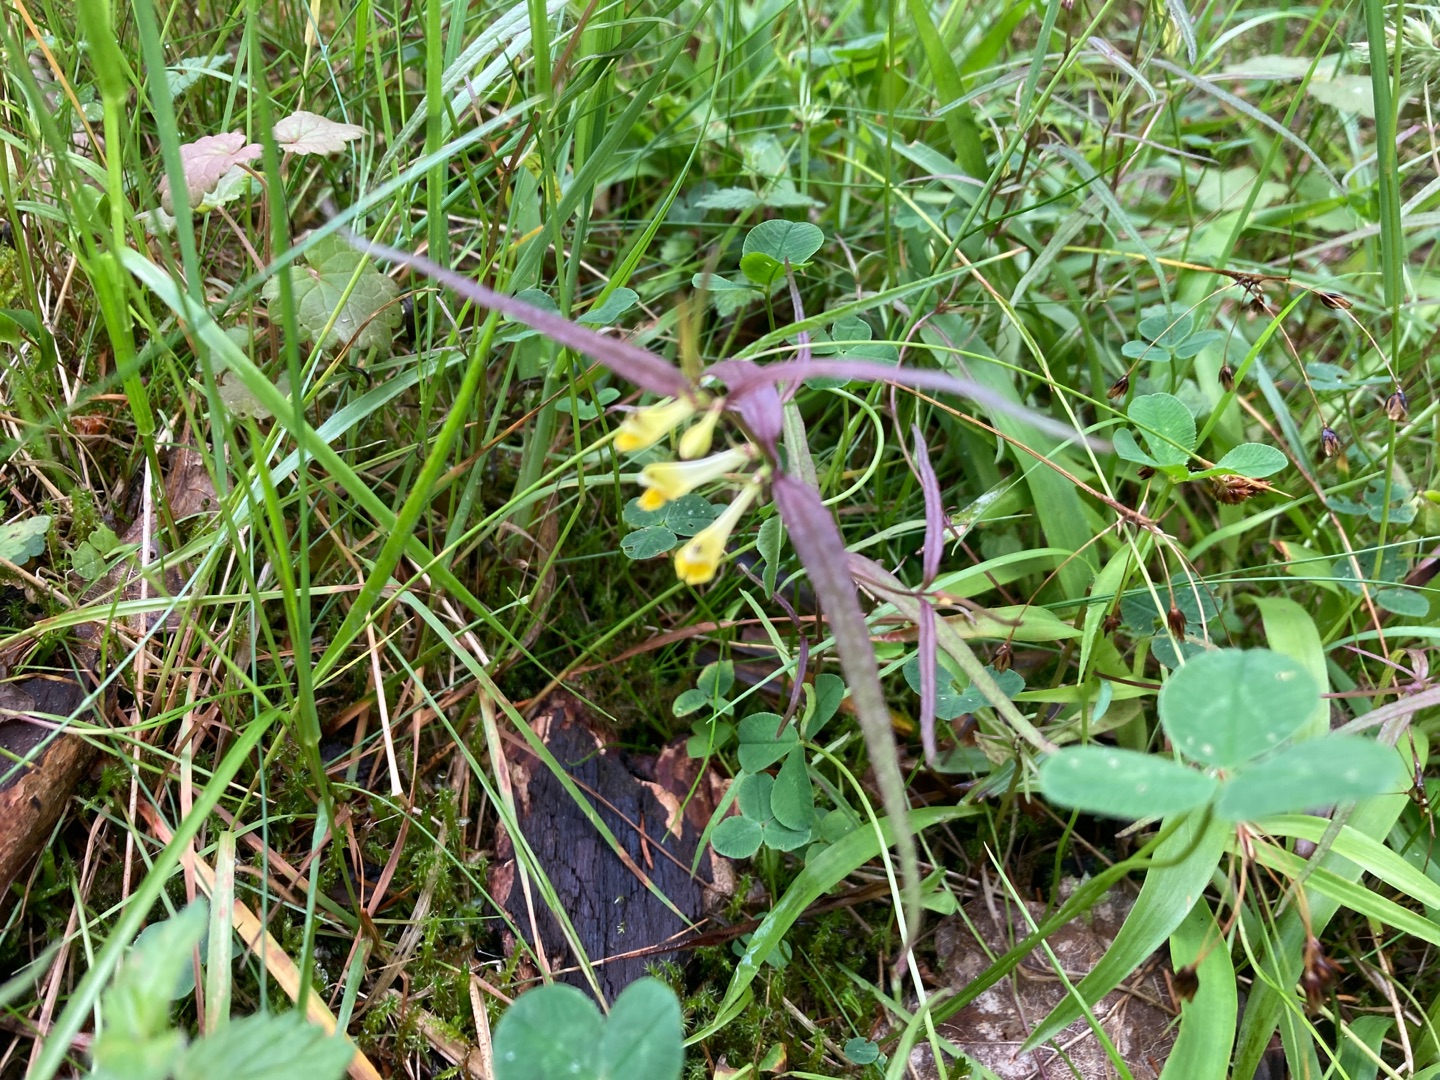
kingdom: Plantae
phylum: Tracheophyta
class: Magnoliopsida
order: Lamiales
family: Orobanchaceae
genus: Melampyrum
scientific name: Melampyrum pratense
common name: Almindelig kohvede
